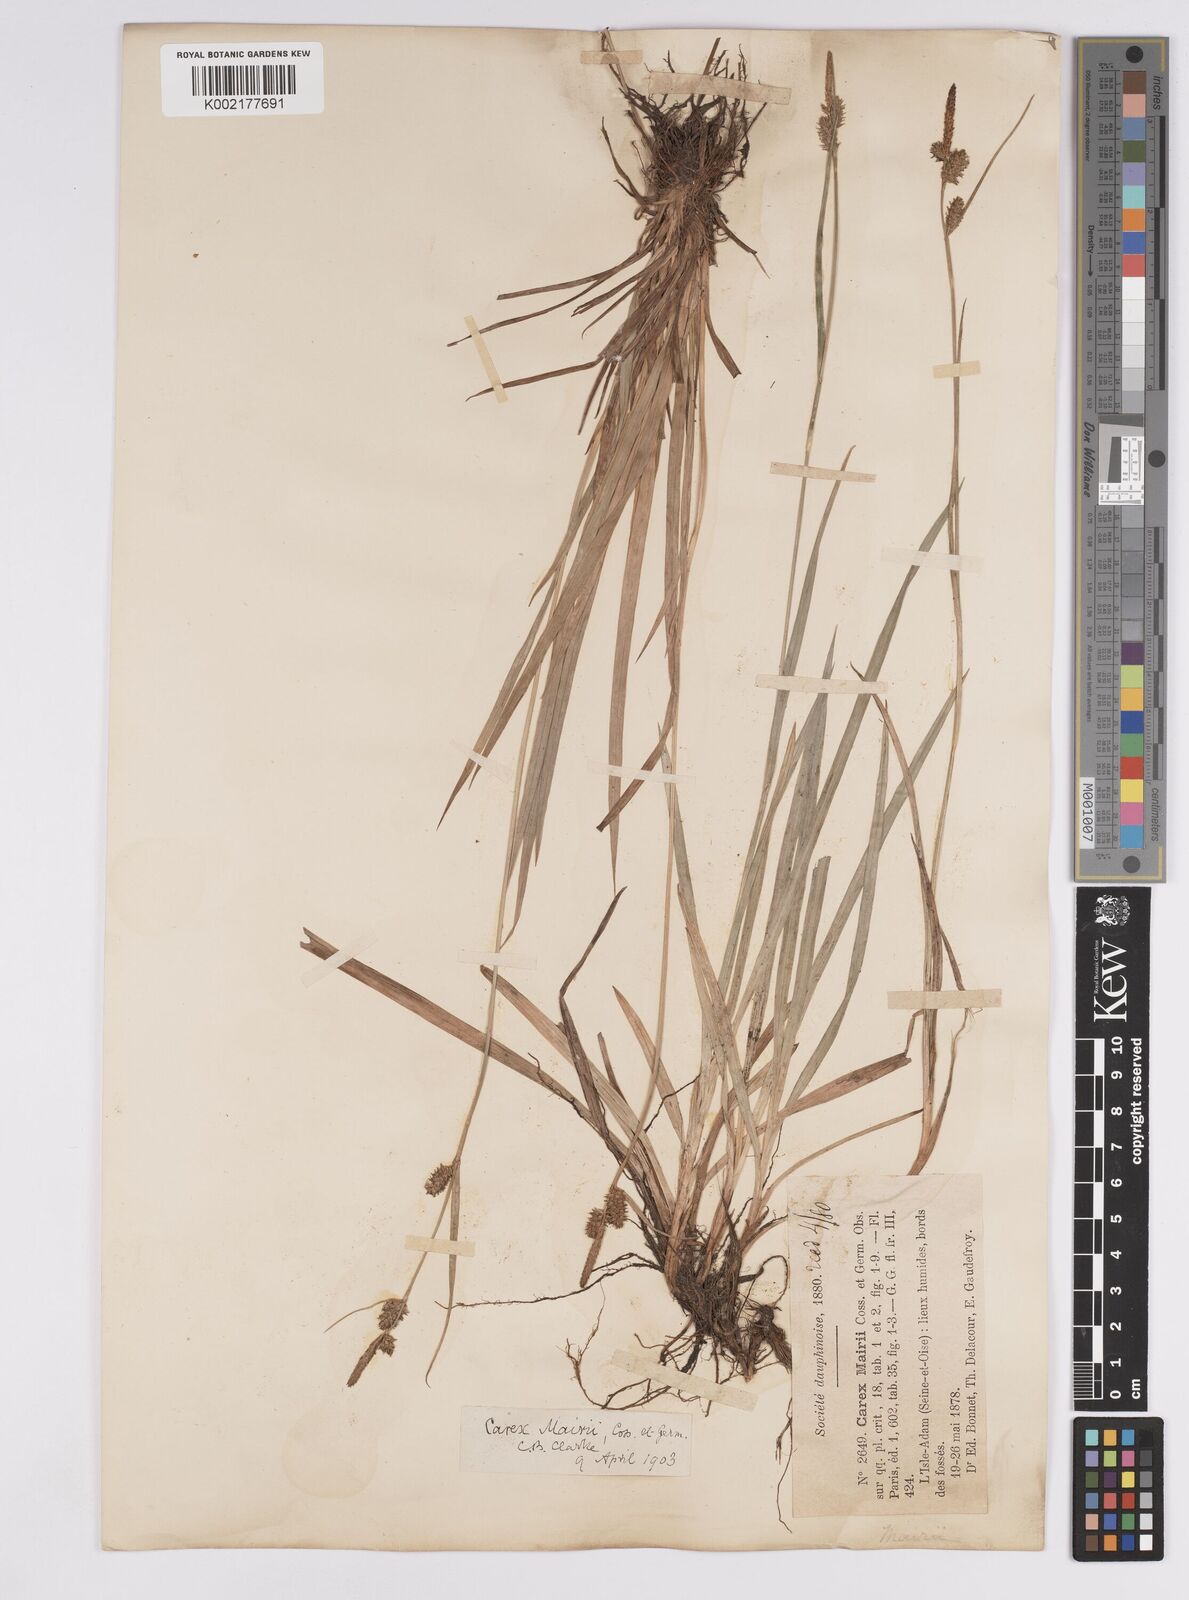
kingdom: Plantae
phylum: Tracheophyta
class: Liliopsida
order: Poales
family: Cyperaceae
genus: Carex
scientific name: Carex mairei
